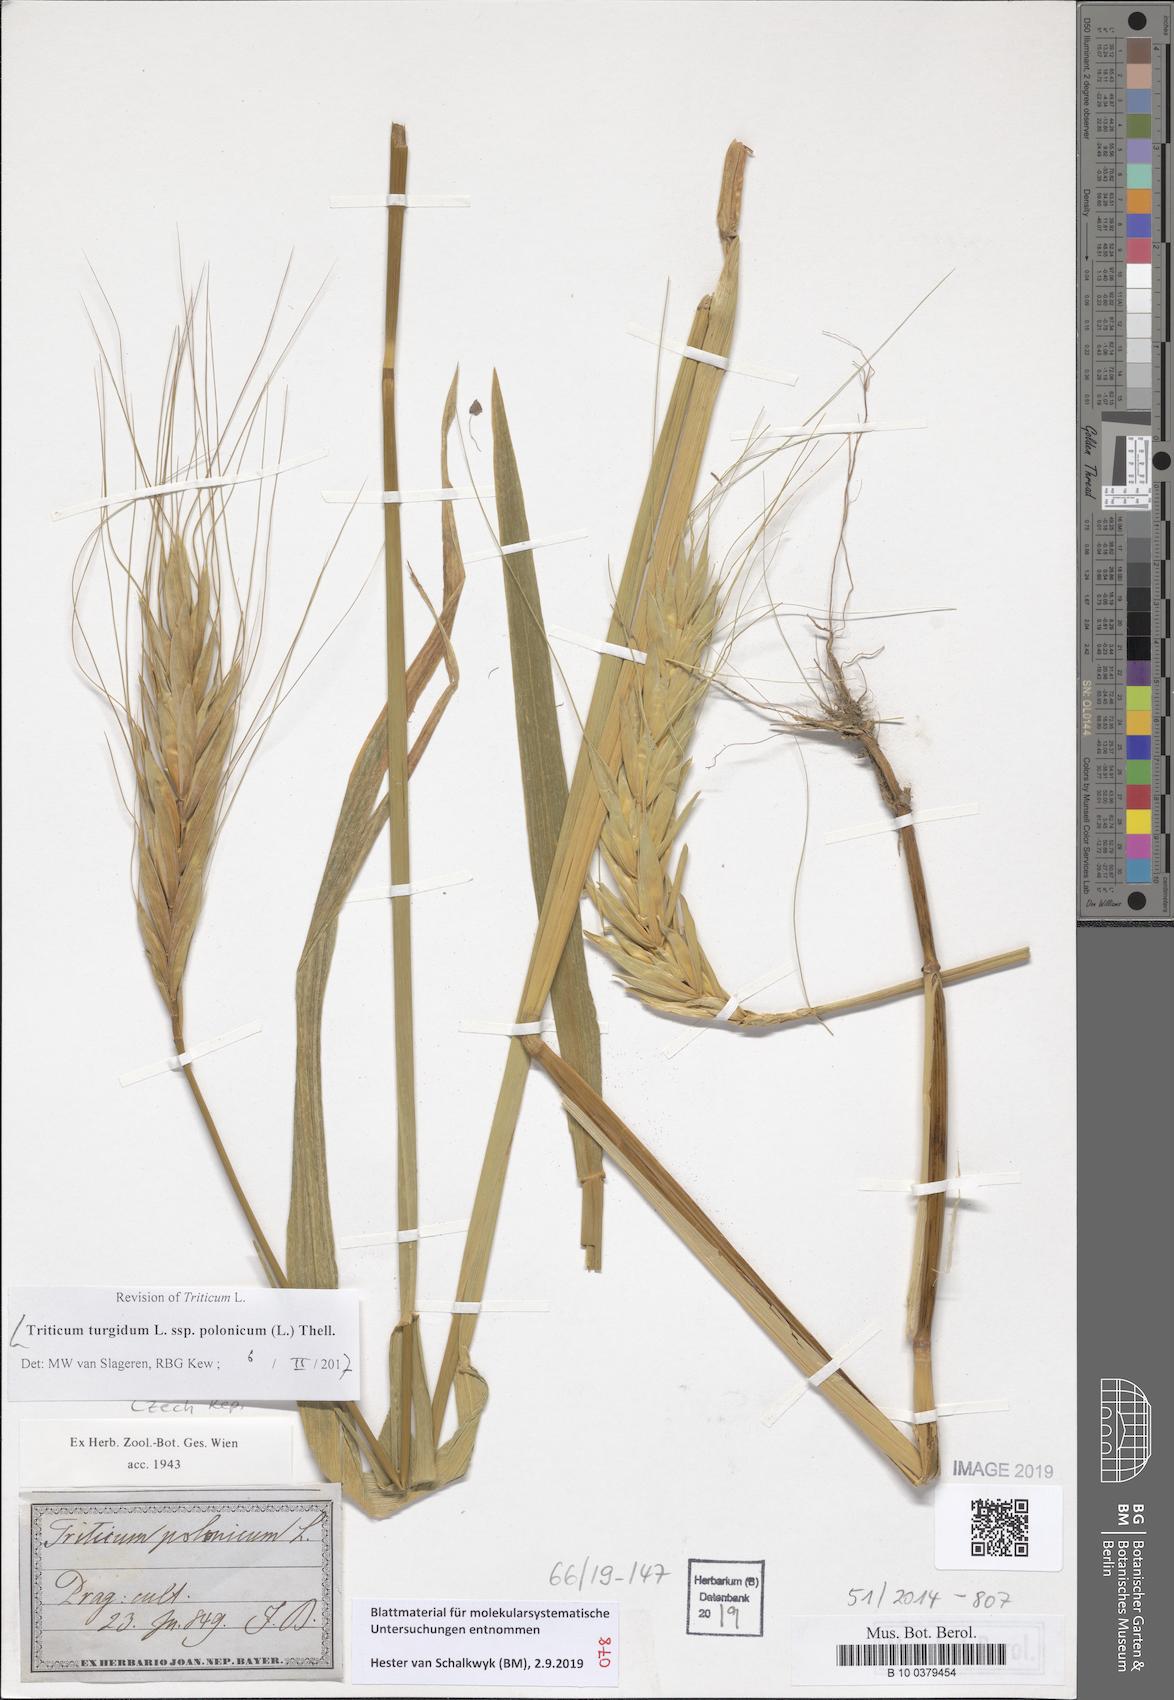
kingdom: Plantae
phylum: Tracheophyta
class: Liliopsida
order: Poales
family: Poaceae
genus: Triticum
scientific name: Triticum turgidum
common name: Rivet wheat
